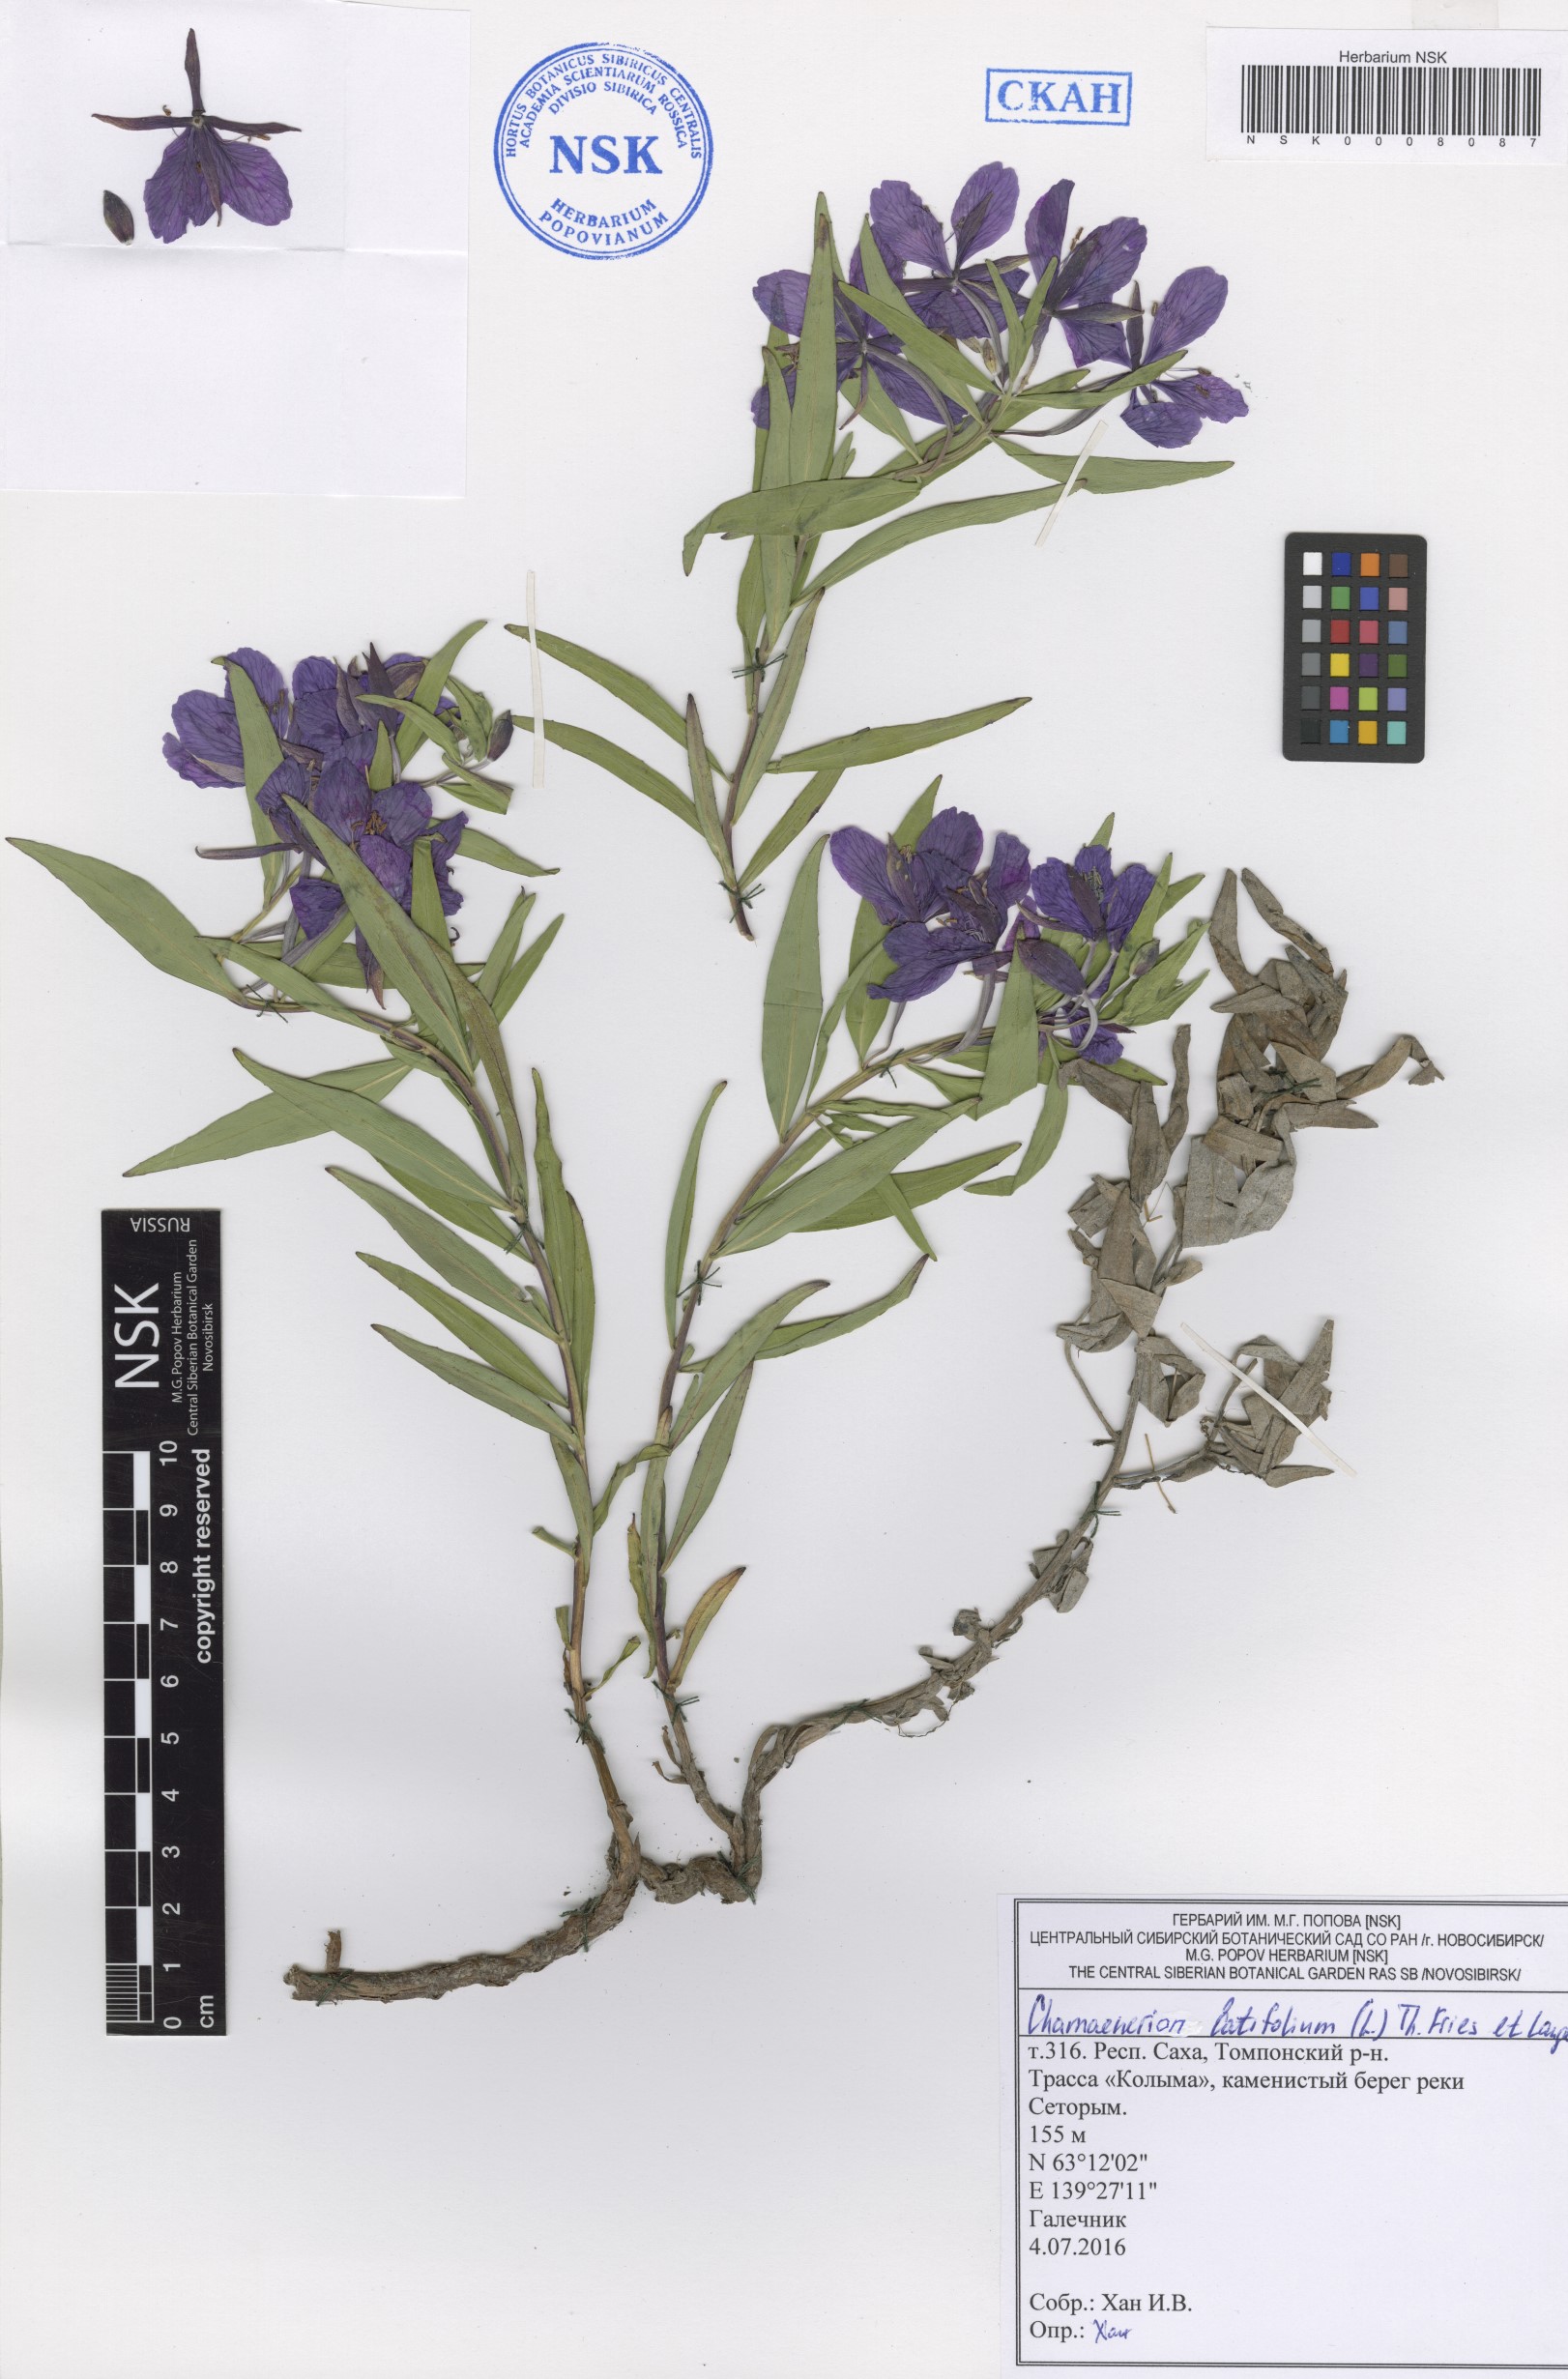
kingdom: Plantae
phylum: Tracheophyta
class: Magnoliopsida
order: Myrtales
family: Onagraceae
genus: Chamaenerion
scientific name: Chamaenerion latifolium
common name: Dwarf fireweed
